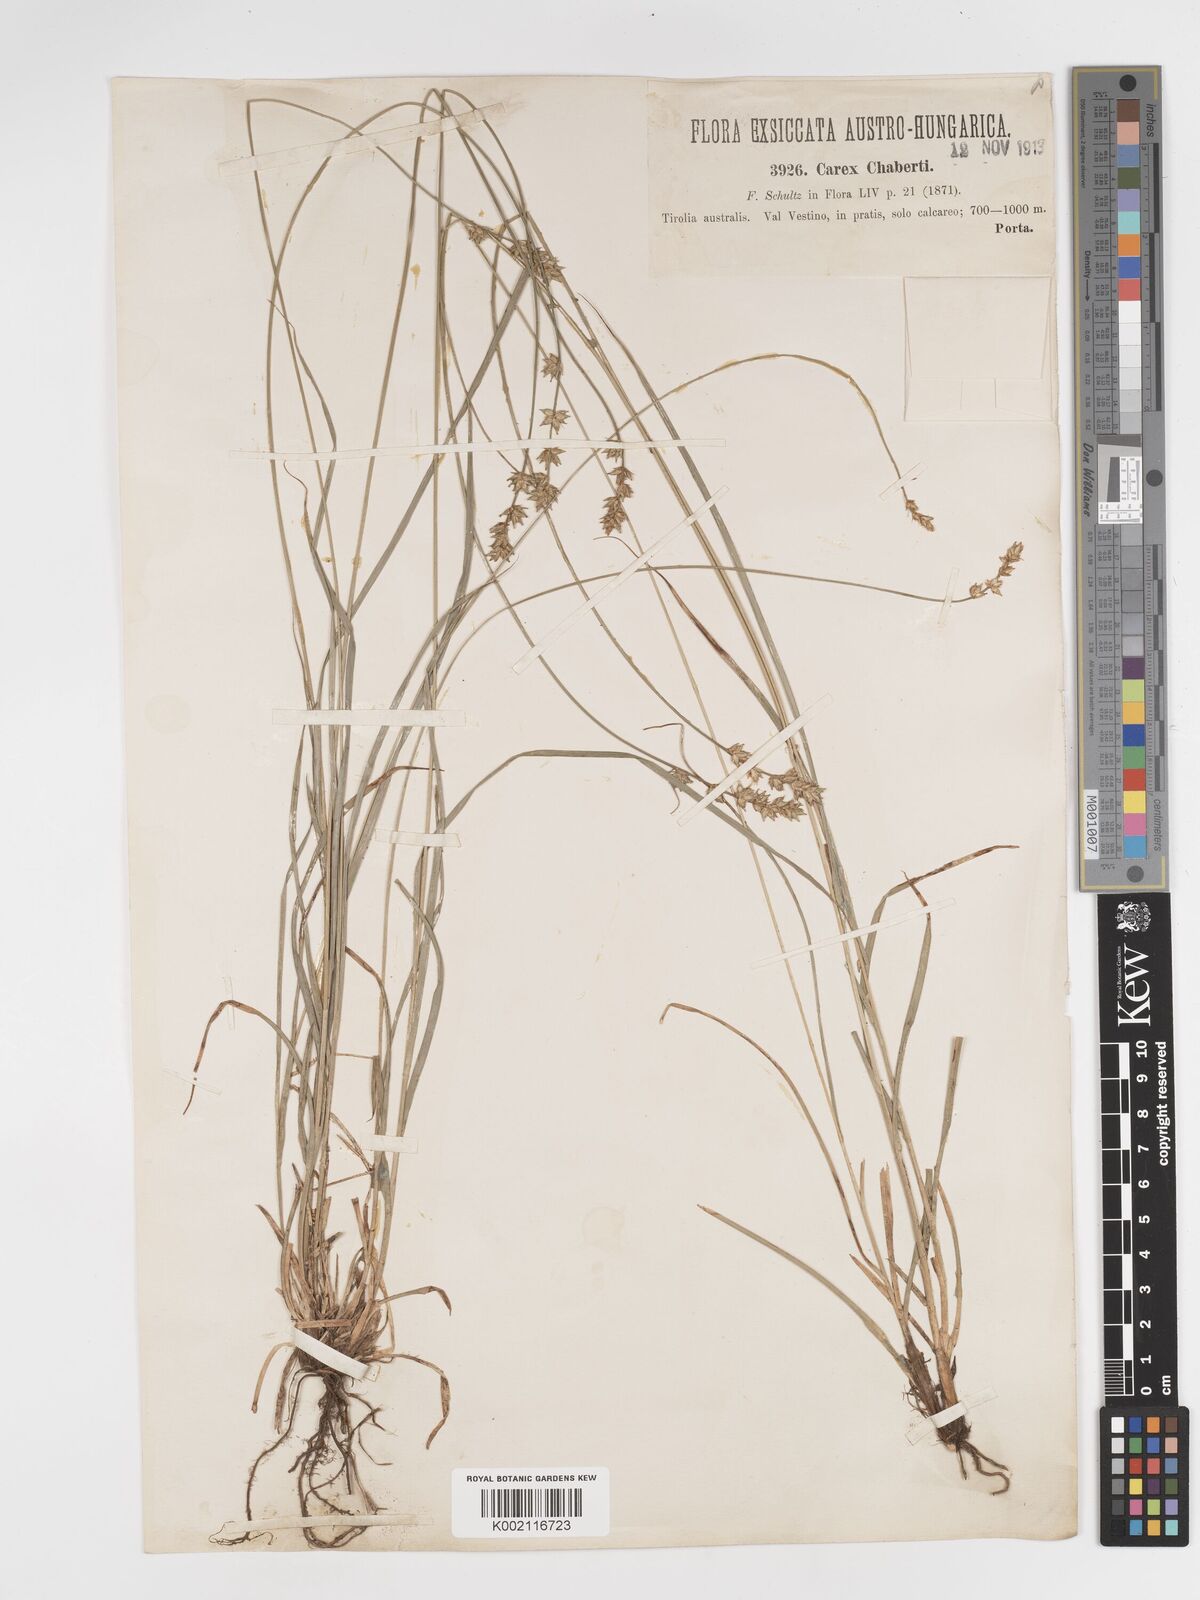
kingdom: Plantae
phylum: Tracheophyta
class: Liliopsida
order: Poales
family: Cyperaceae
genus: Carex
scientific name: Carex divulsa
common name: Grassland sedge
